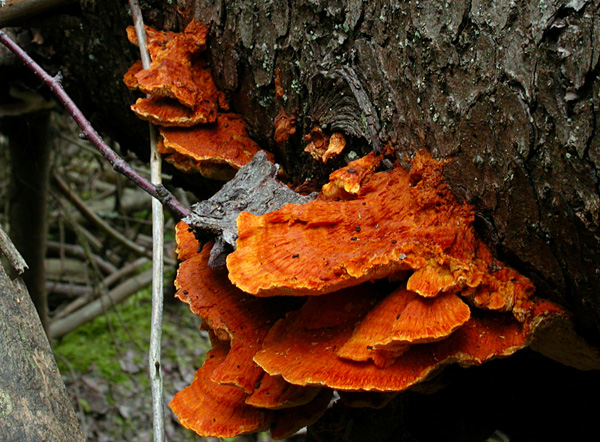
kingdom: Fungi
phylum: Basidiomycota
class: Agaricomycetes
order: Polyporales
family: Pycnoporellaceae
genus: Pycnoporellus
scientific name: Pycnoporellus fulgens
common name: flammeporesvamp
